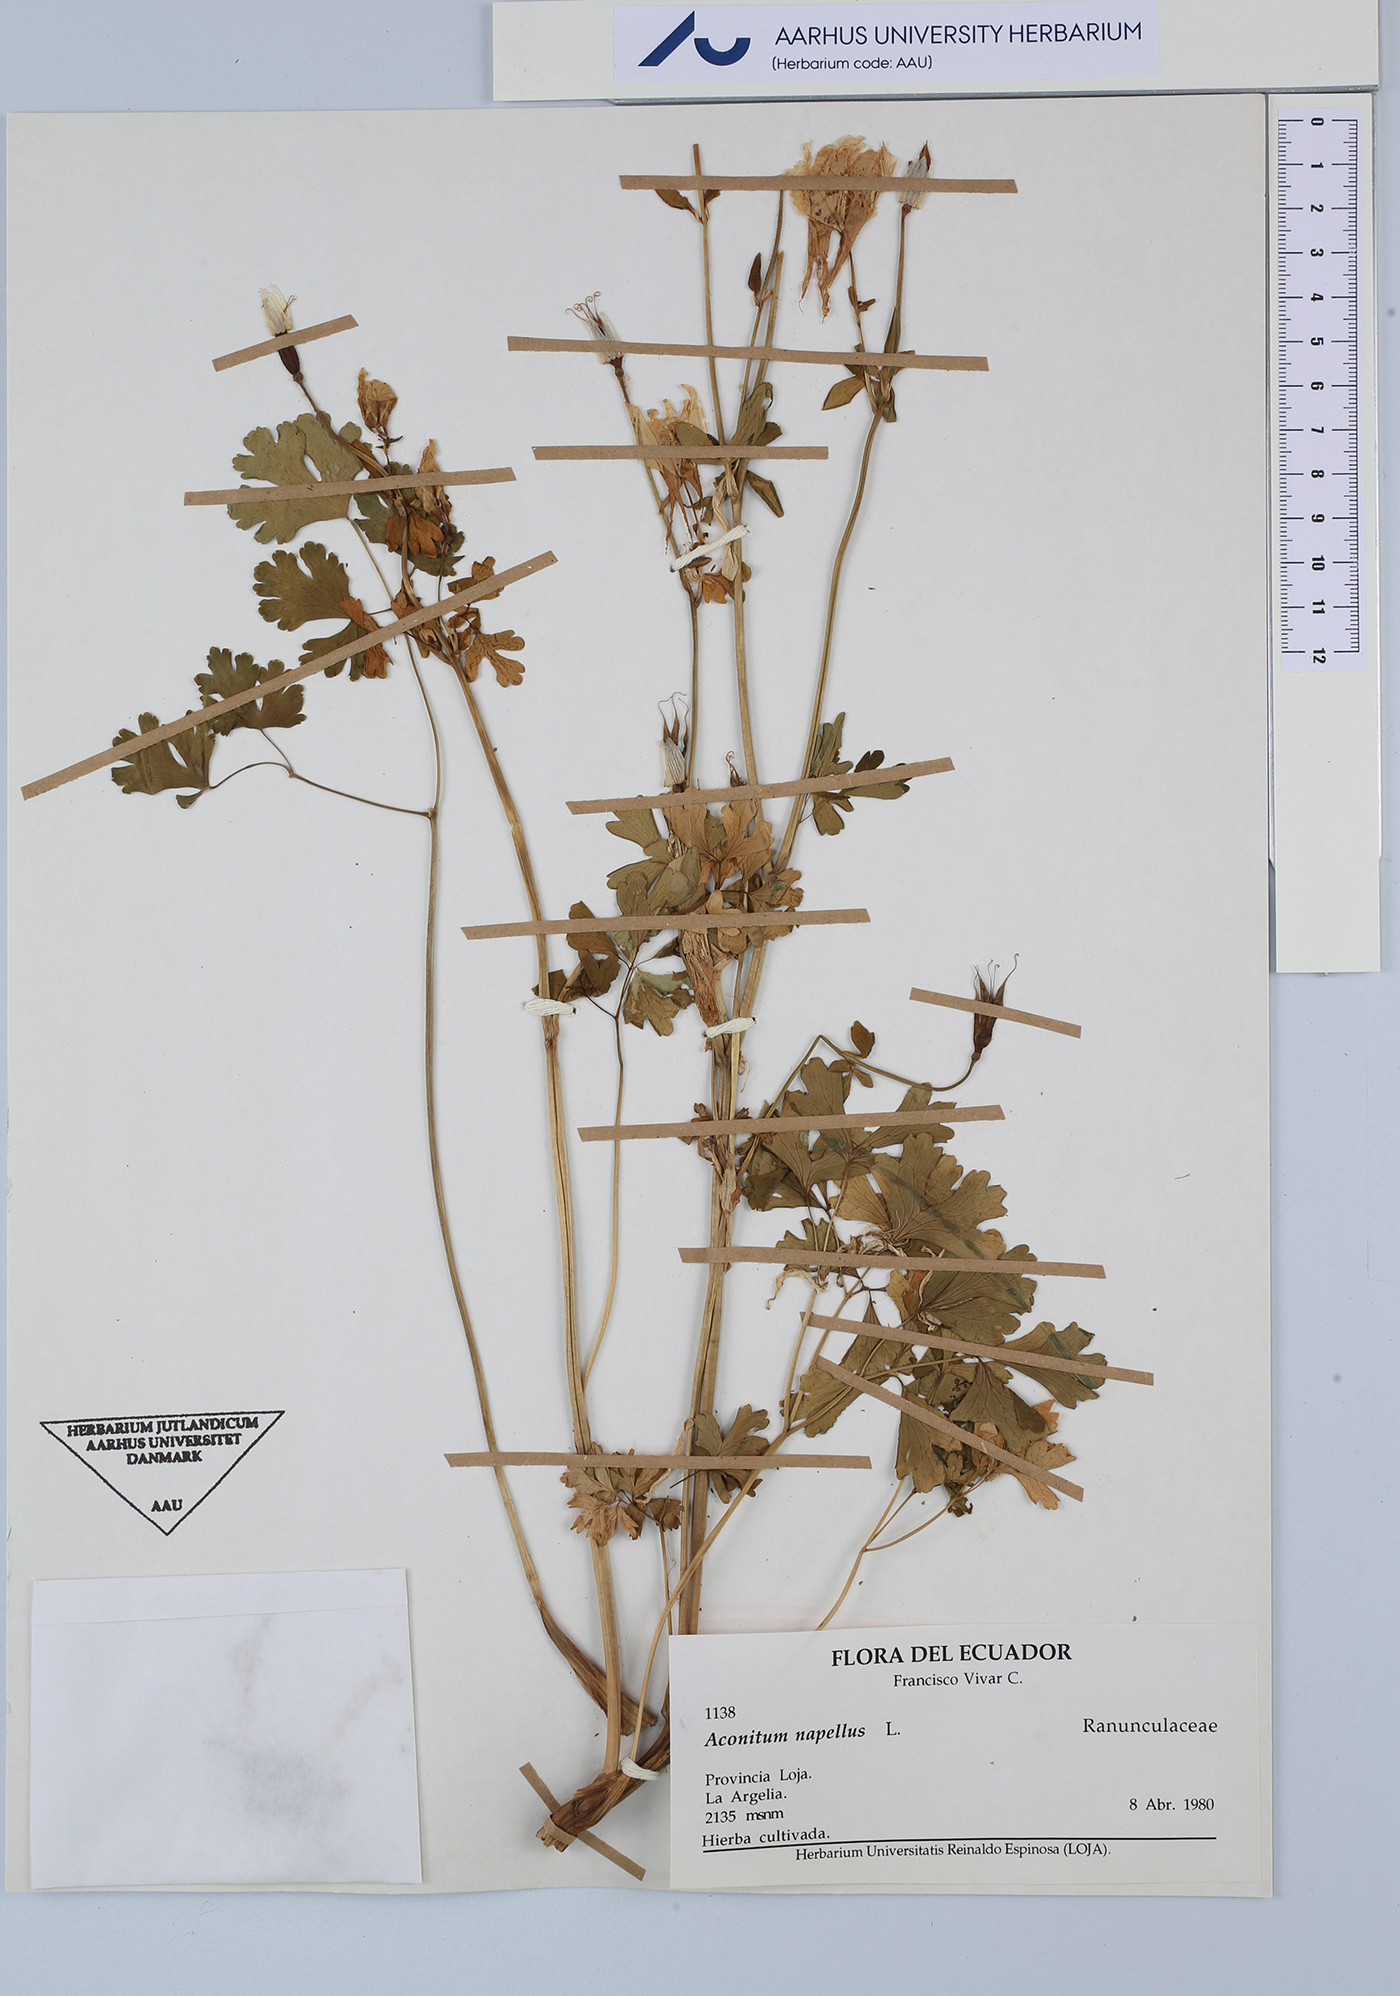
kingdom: Plantae
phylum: Tracheophyta
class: Magnoliopsida
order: Ranunculales
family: Ranunculaceae
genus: Aconitum
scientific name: Aconitum napellus
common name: Garden monkshood
